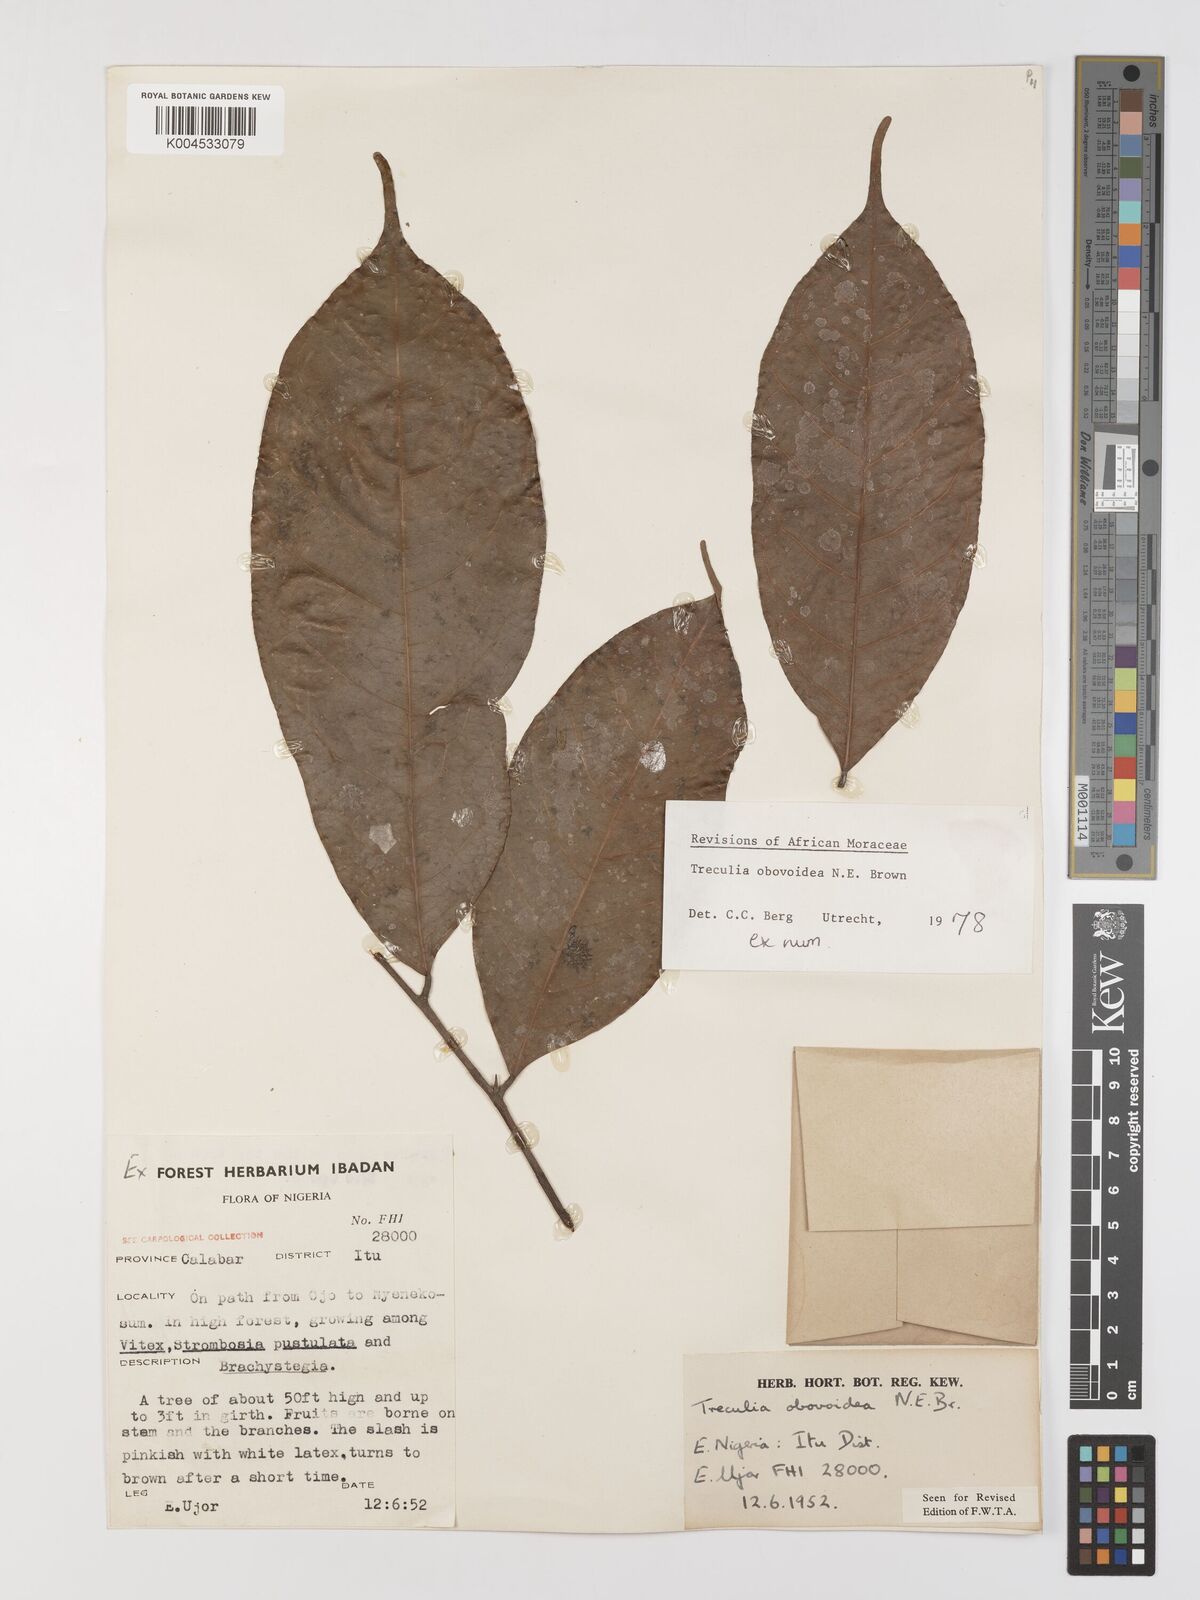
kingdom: Plantae
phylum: Tracheophyta
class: Magnoliopsida
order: Rosales
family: Moraceae
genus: Treculia
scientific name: Treculia obovoidea
